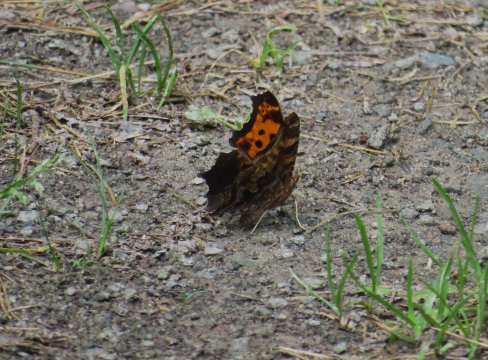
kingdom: Animalia
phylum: Arthropoda
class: Insecta
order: Lepidoptera
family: Nymphalidae
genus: Polygonia
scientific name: Polygonia comma
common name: Eastern Comma
